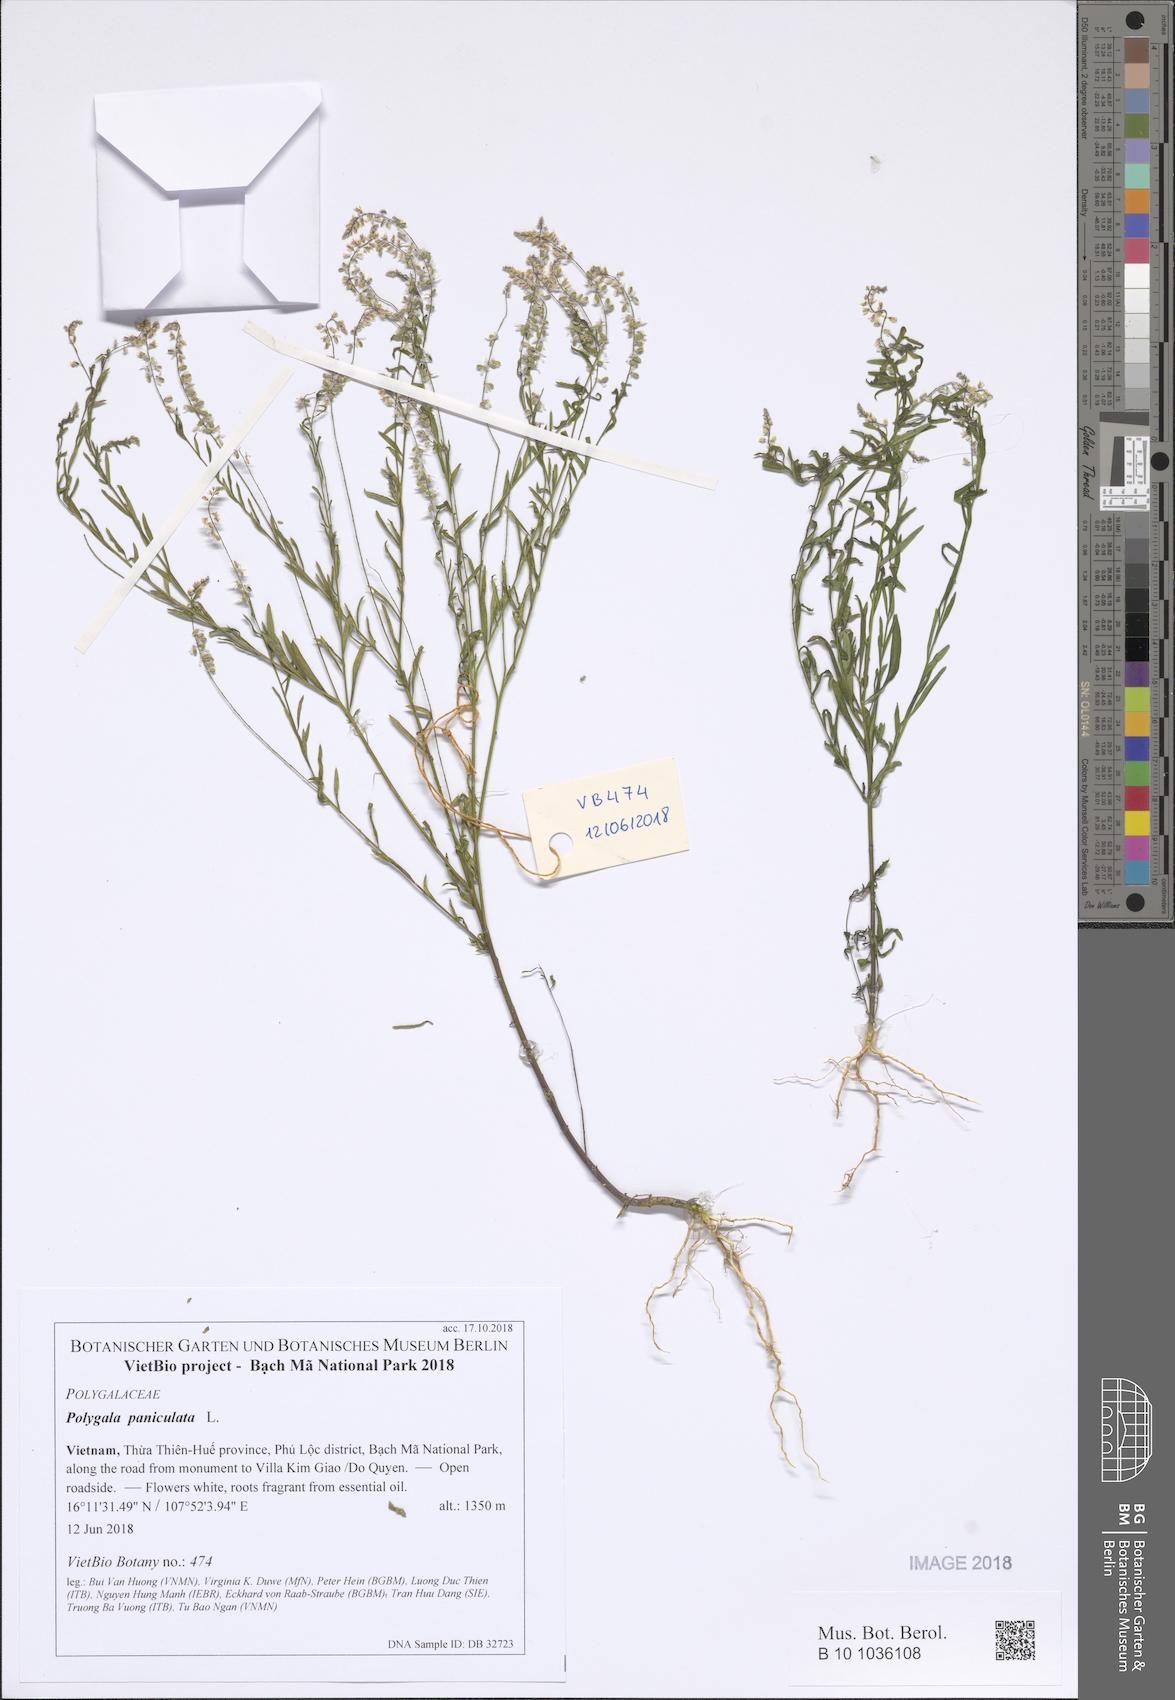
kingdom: Plantae
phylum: Tracheophyta
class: Magnoliopsida
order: Fabales
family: Polygalaceae
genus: Polygala
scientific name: Polygala exilis
